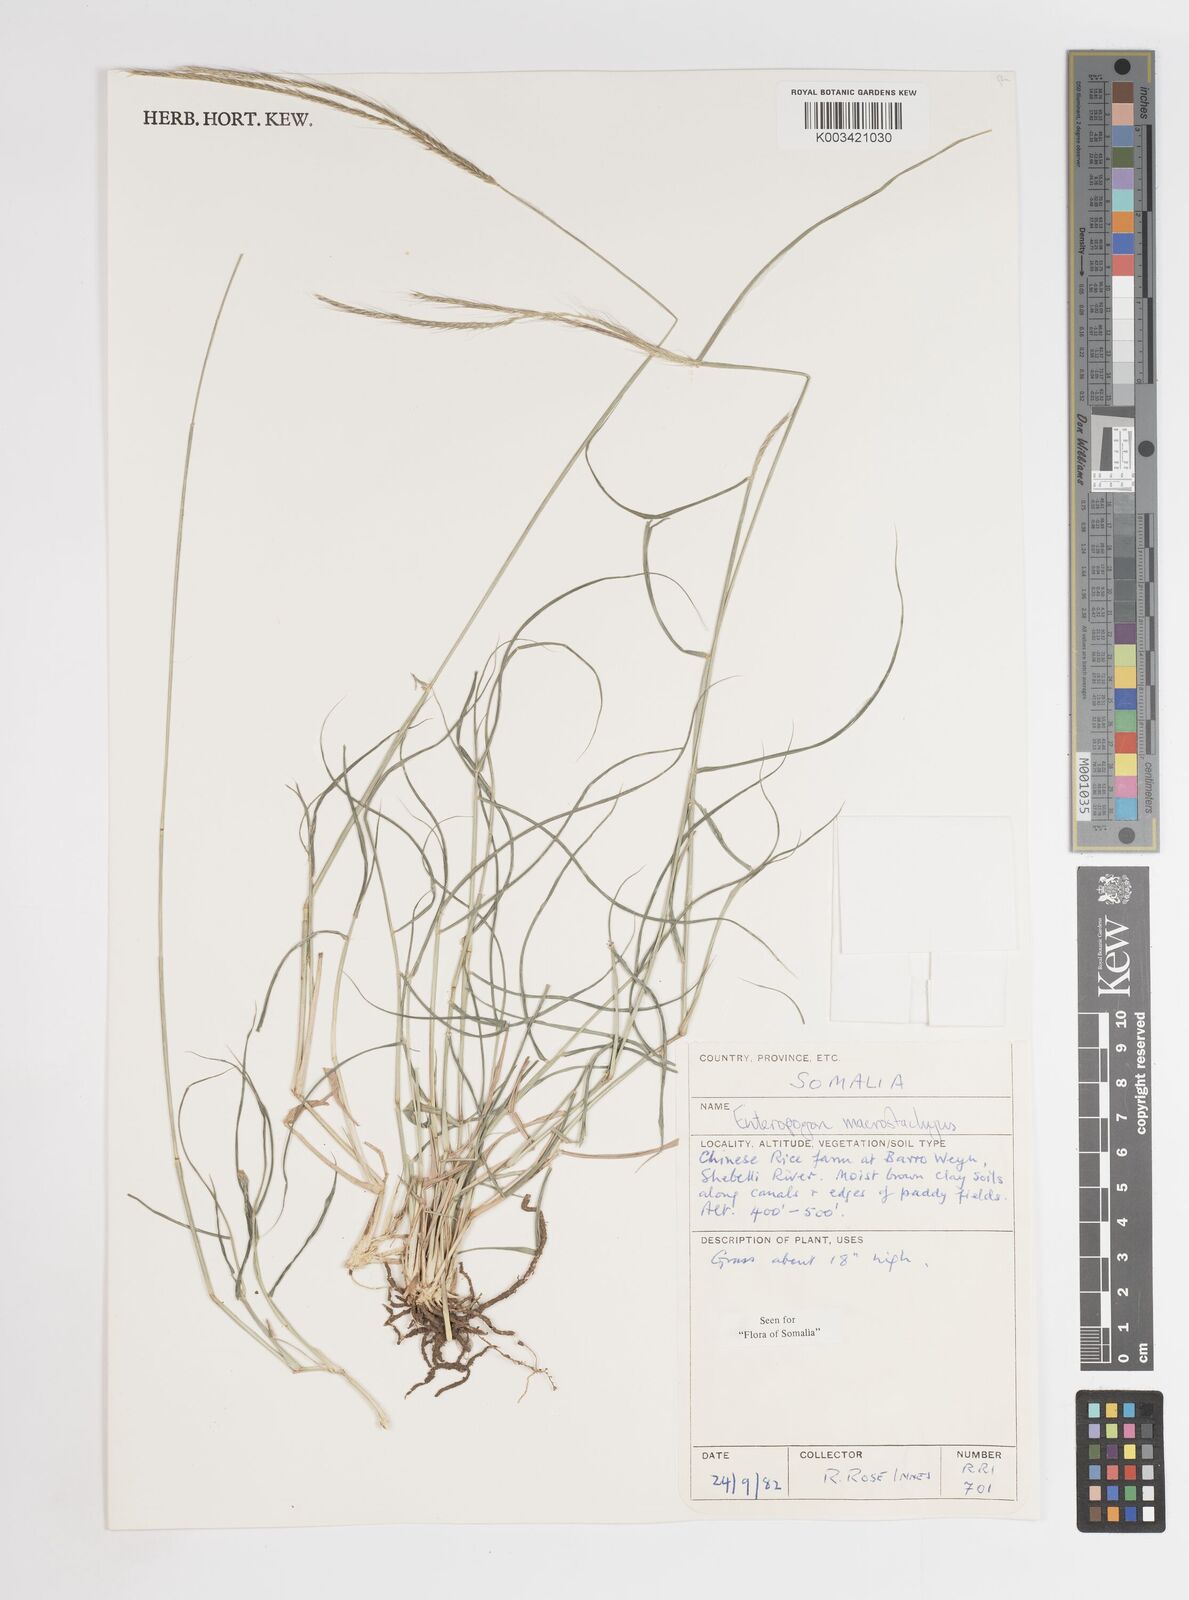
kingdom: Plantae
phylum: Tracheophyta
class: Liliopsida
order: Poales
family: Poaceae
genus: Enteropogon
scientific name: Enteropogon macrostachyus
